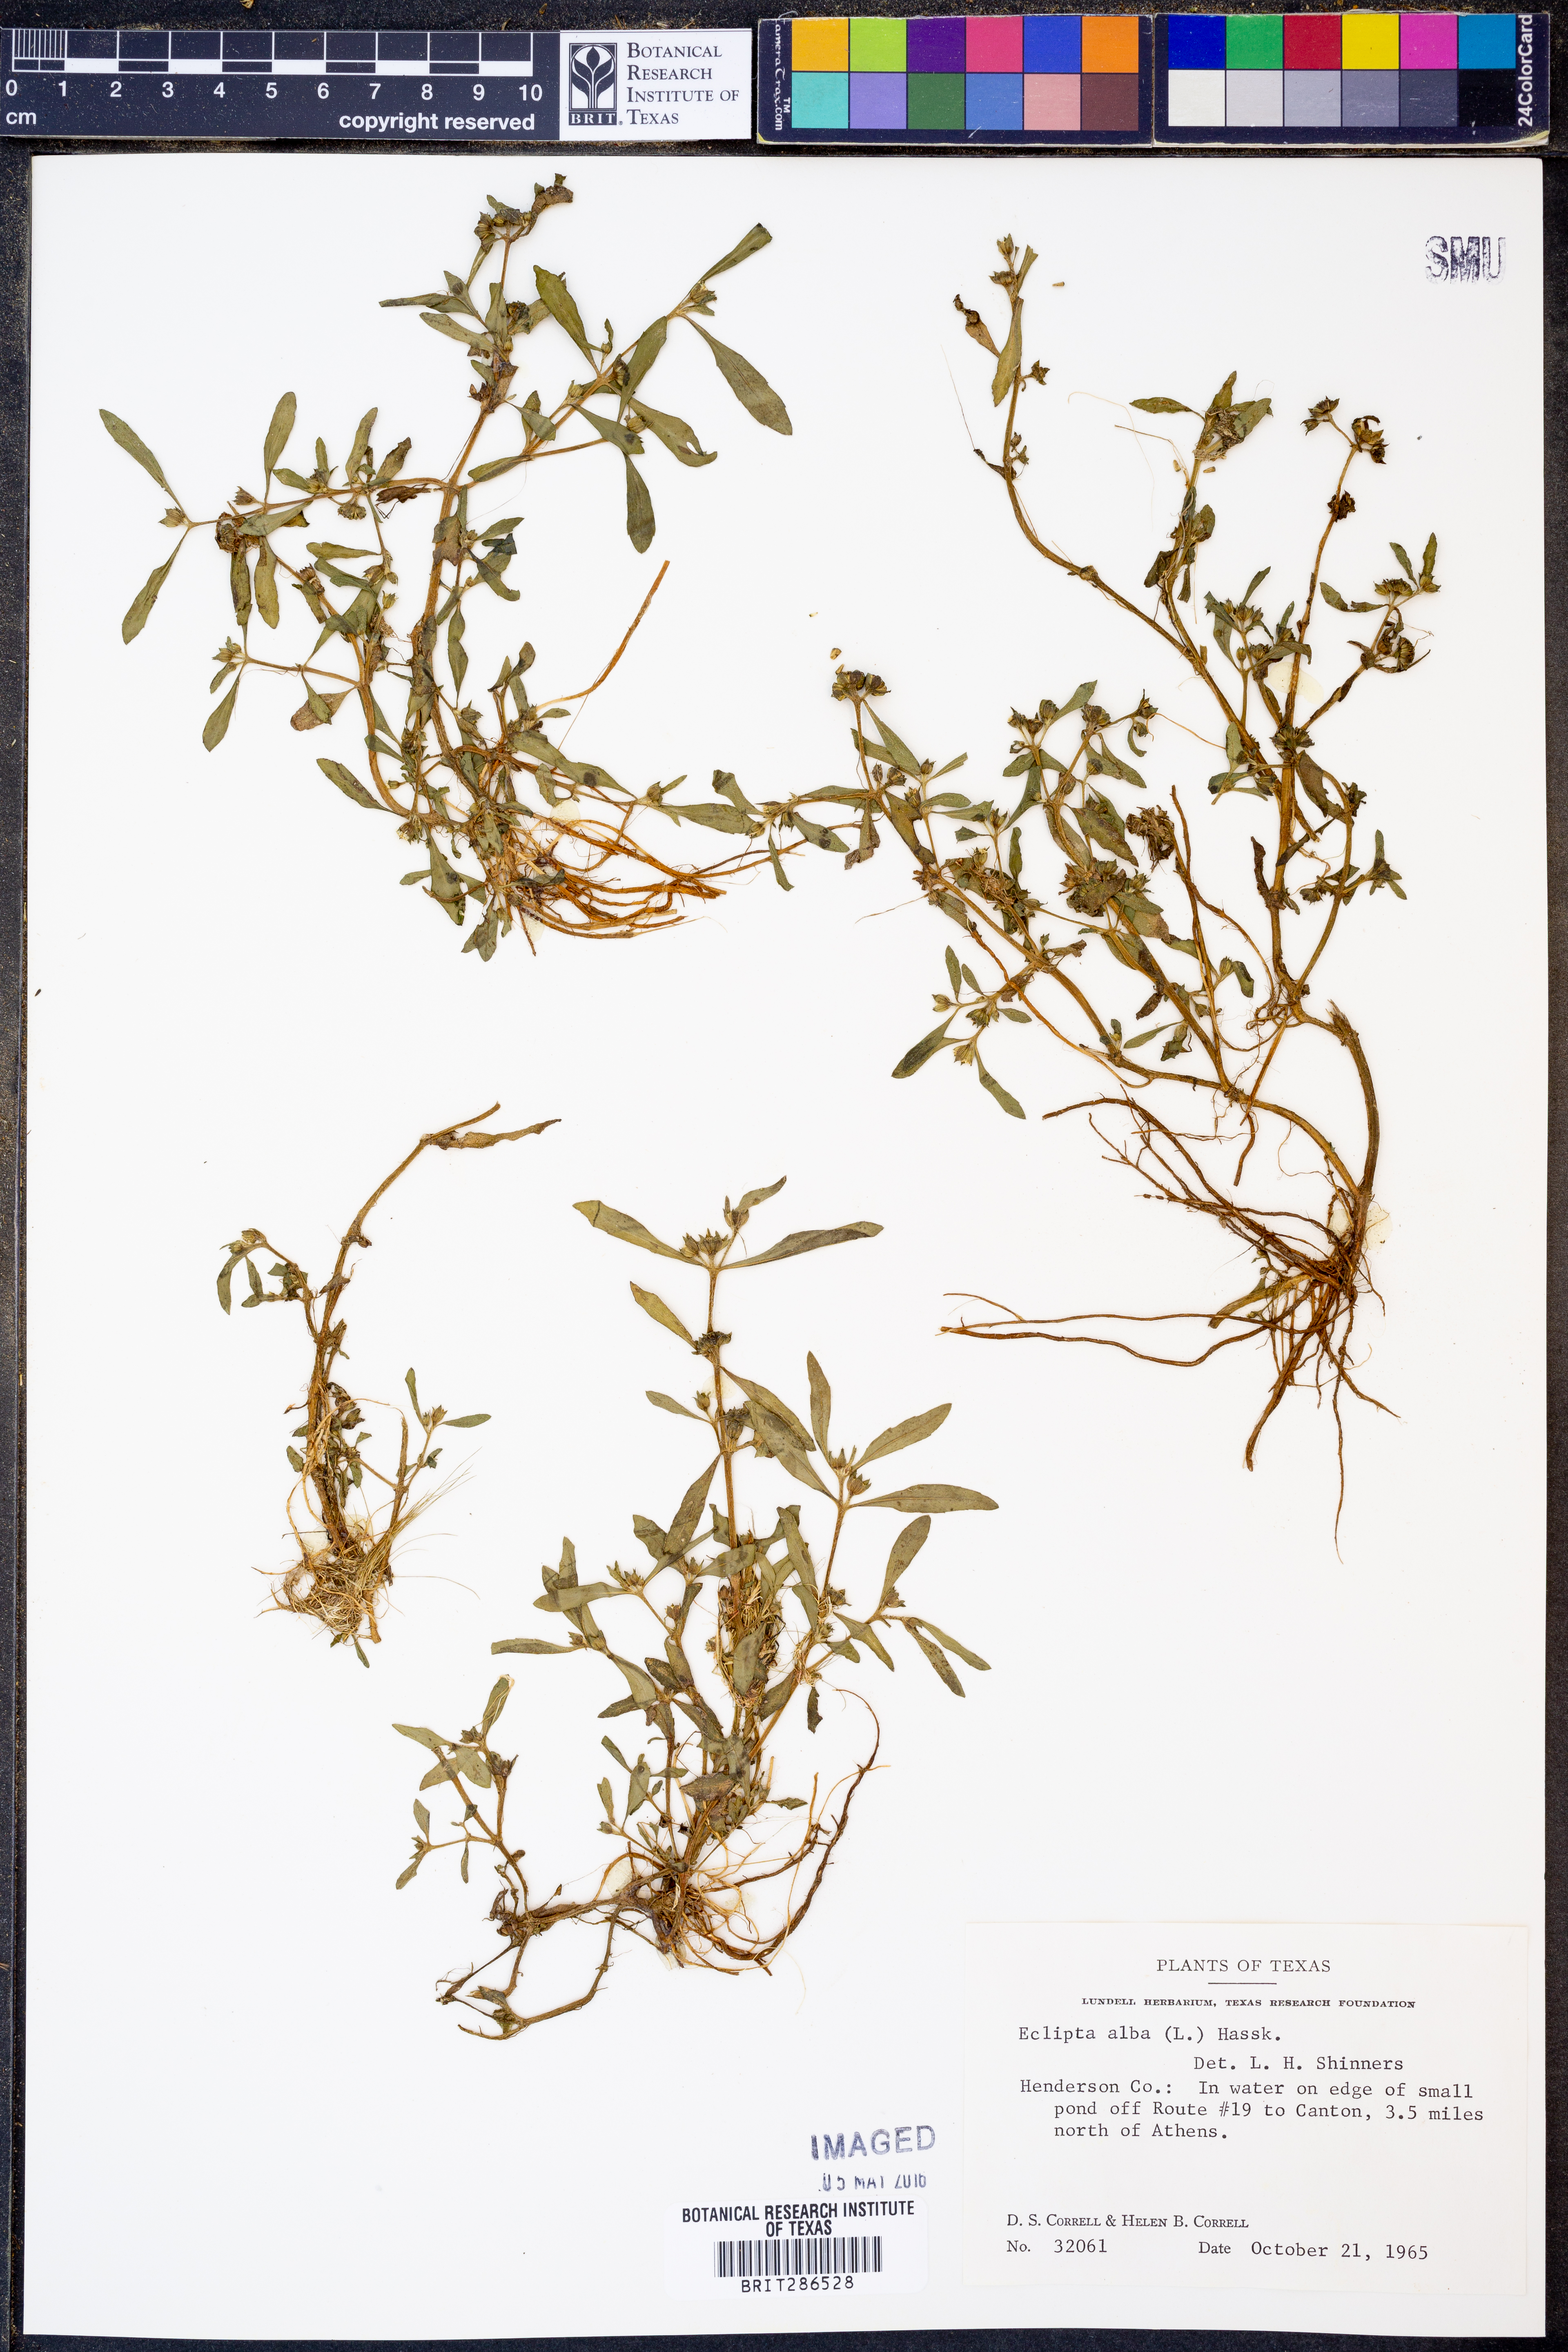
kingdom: Plantae
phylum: Tracheophyta
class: Magnoliopsida
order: Asterales
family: Asteraceae
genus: Eclipta
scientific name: Eclipta alba
